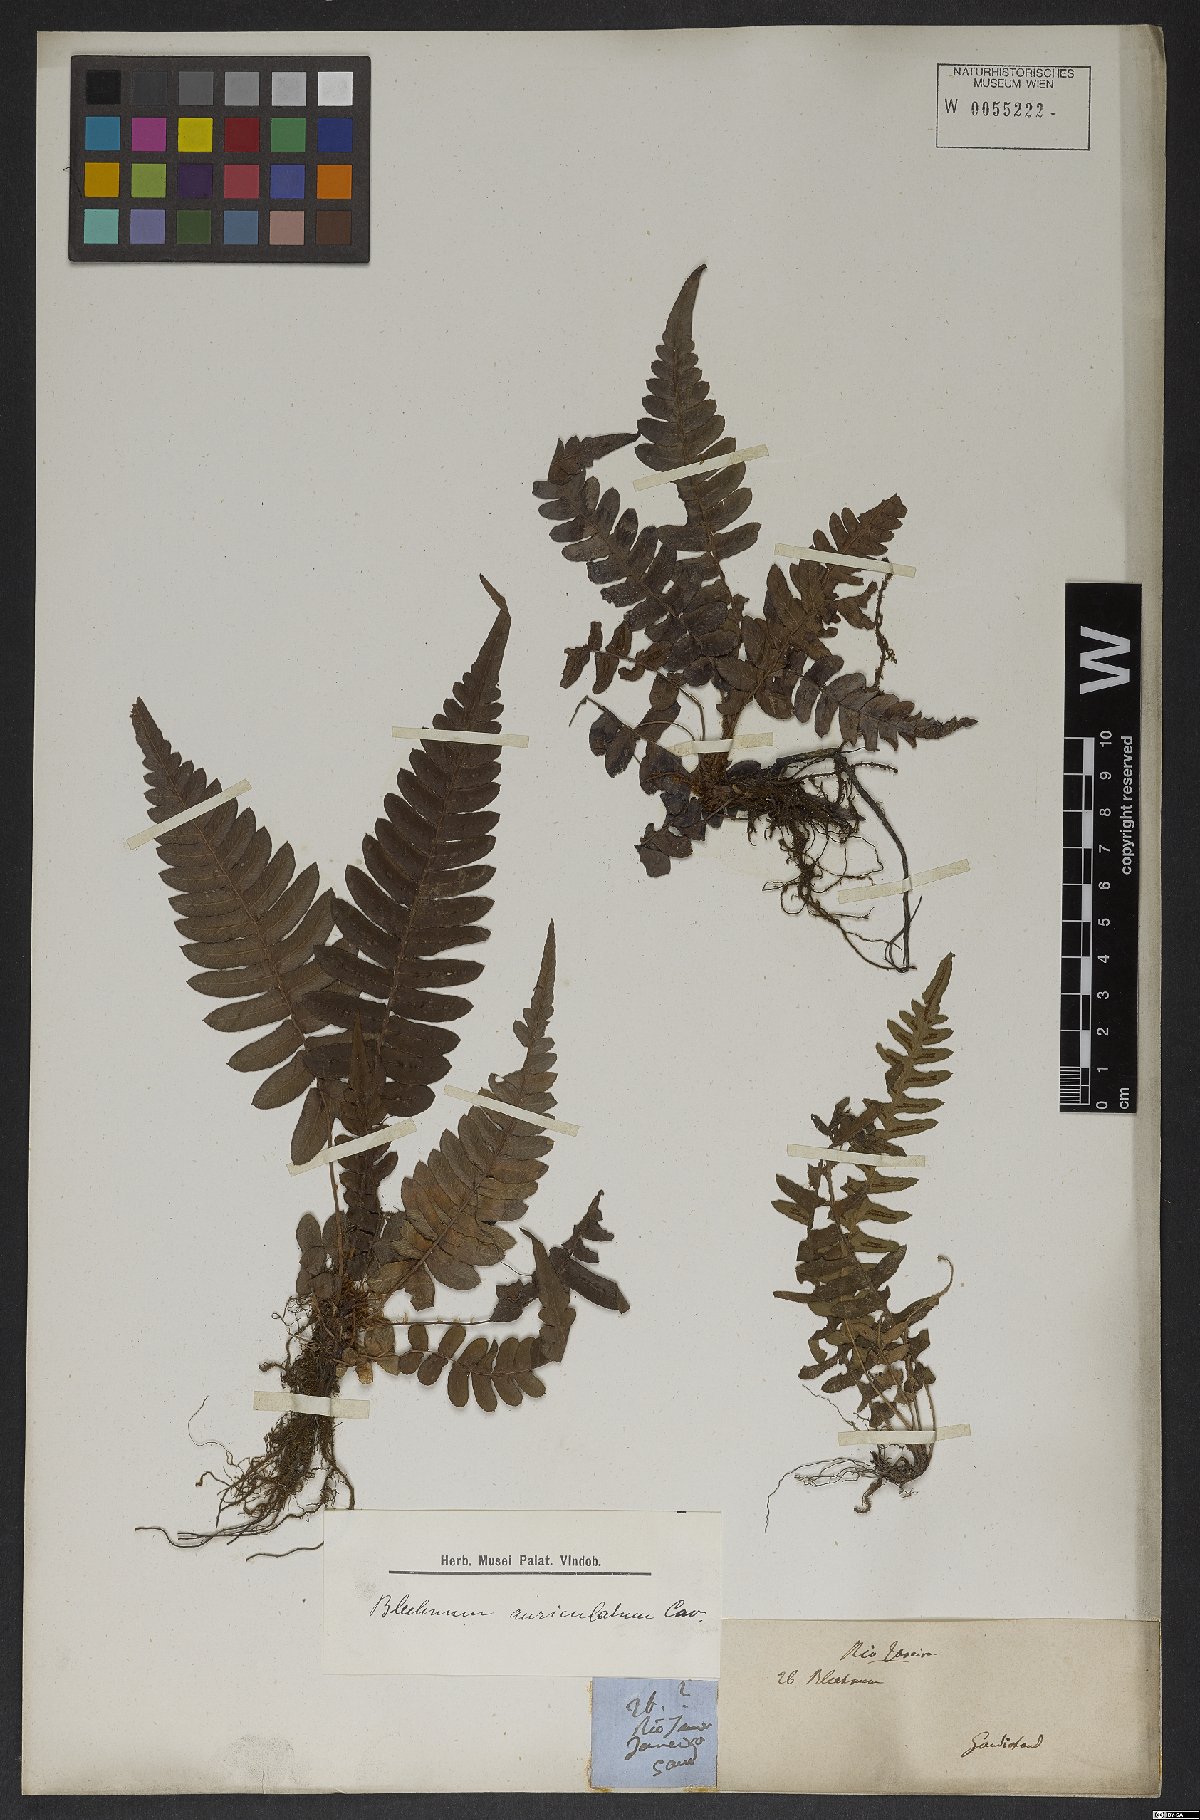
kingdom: Plantae
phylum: Tracheophyta
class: Polypodiopsida
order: Polypodiales
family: Blechnaceae
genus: Blechnum
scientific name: Blechnum auriculatum
